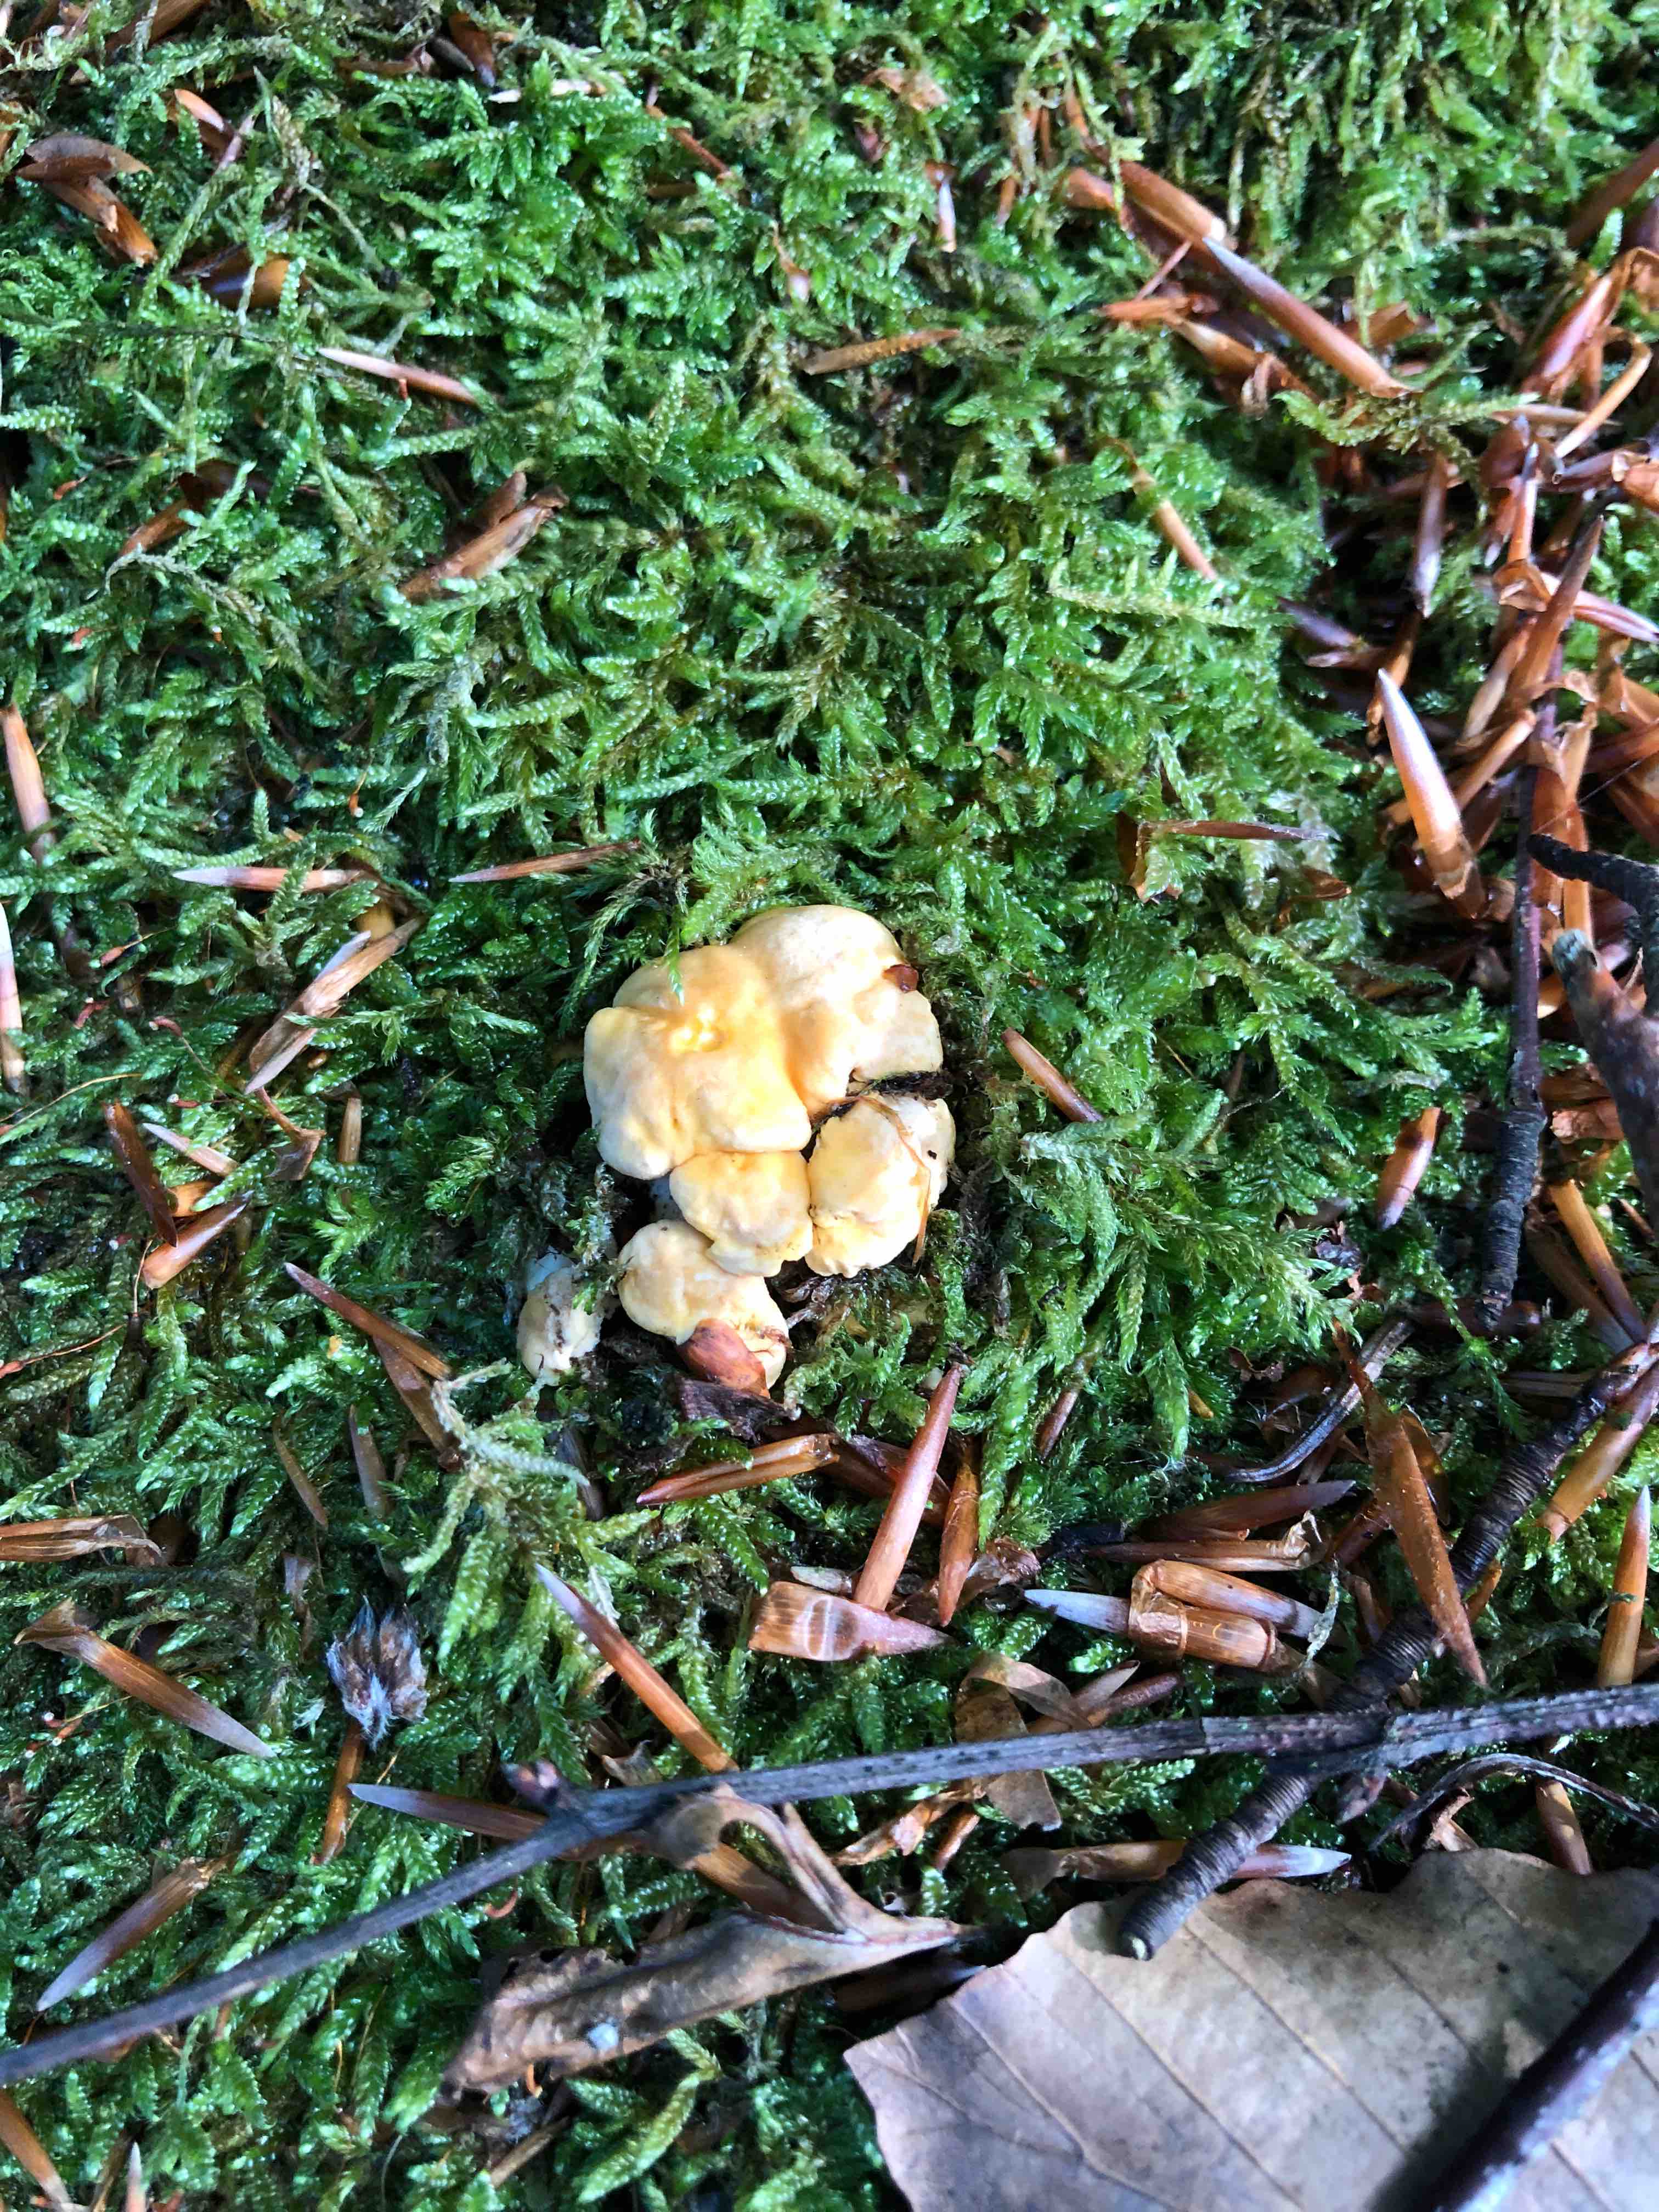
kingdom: Fungi
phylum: Basidiomycota
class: Agaricomycetes
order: Cantharellales
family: Hydnaceae
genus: Cantharellus
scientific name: Cantharellus pallens
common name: bleg kantarel
